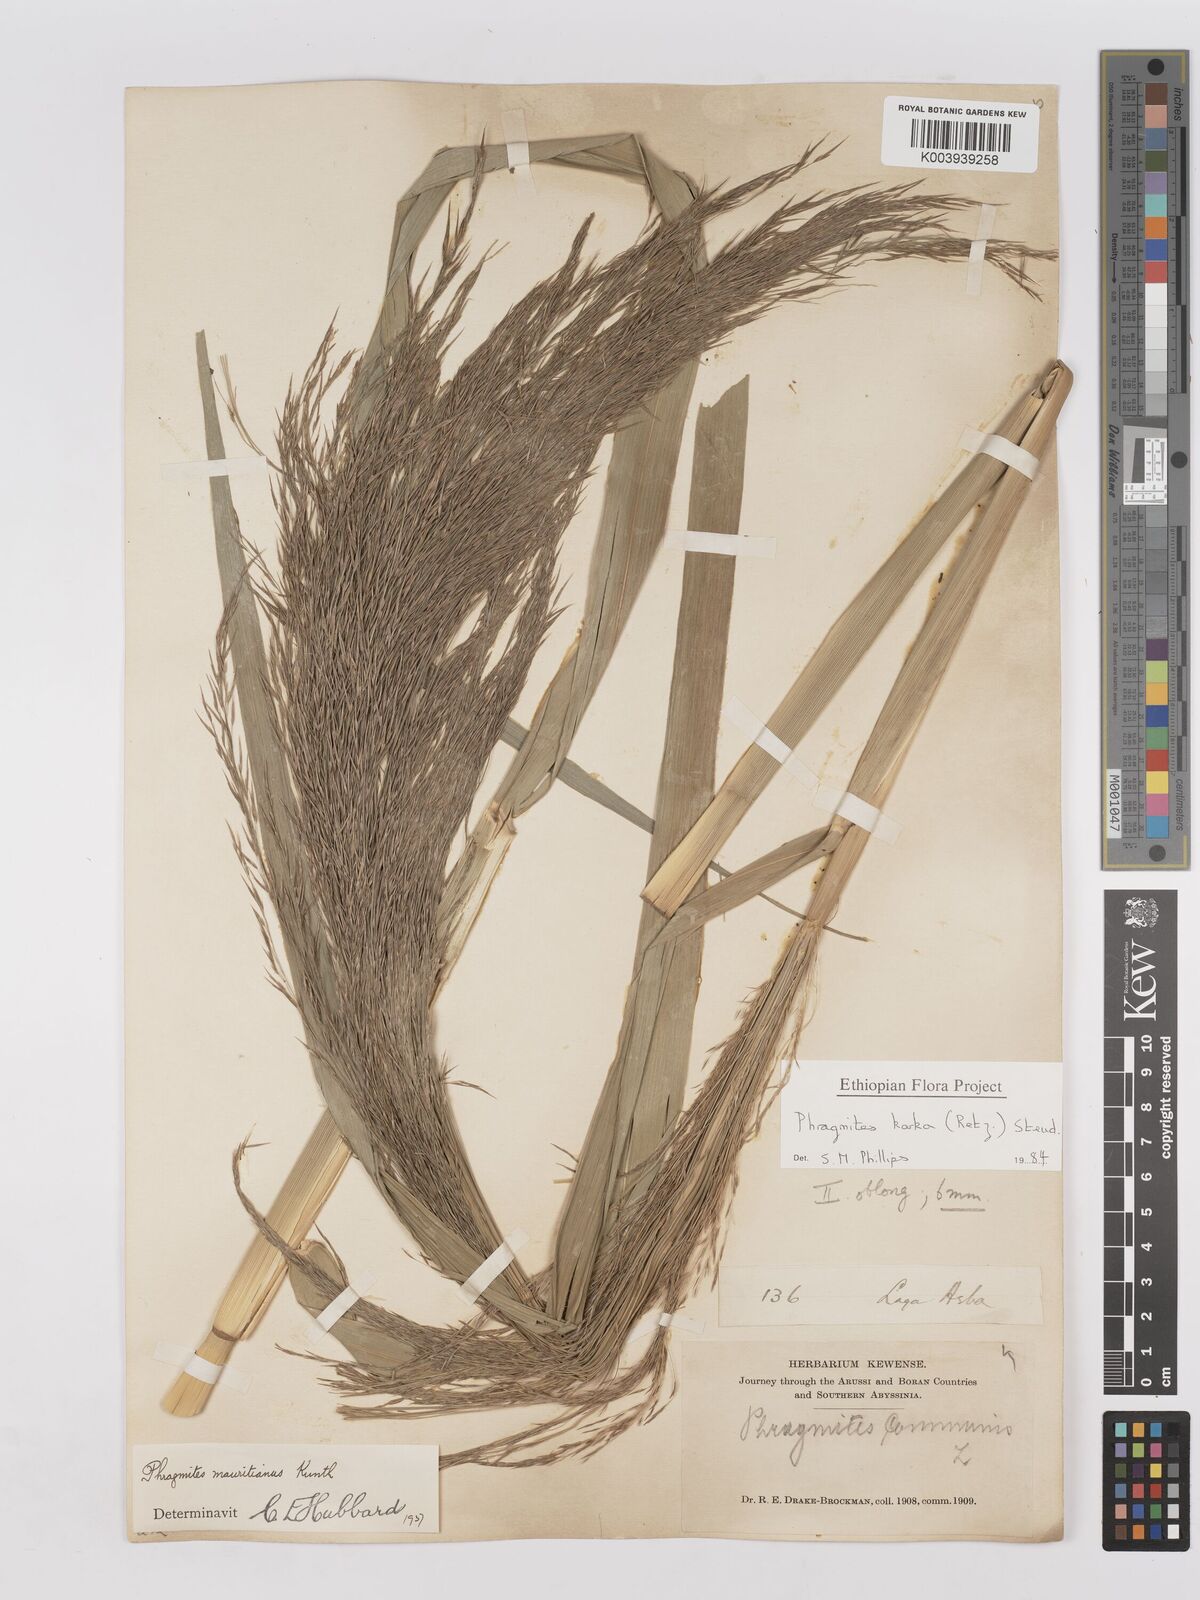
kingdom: Plantae
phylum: Tracheophyta
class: Liliopsida
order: Poales
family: Poaceae
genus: Phragmites
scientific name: Phragmites karka
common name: Tropical reed
